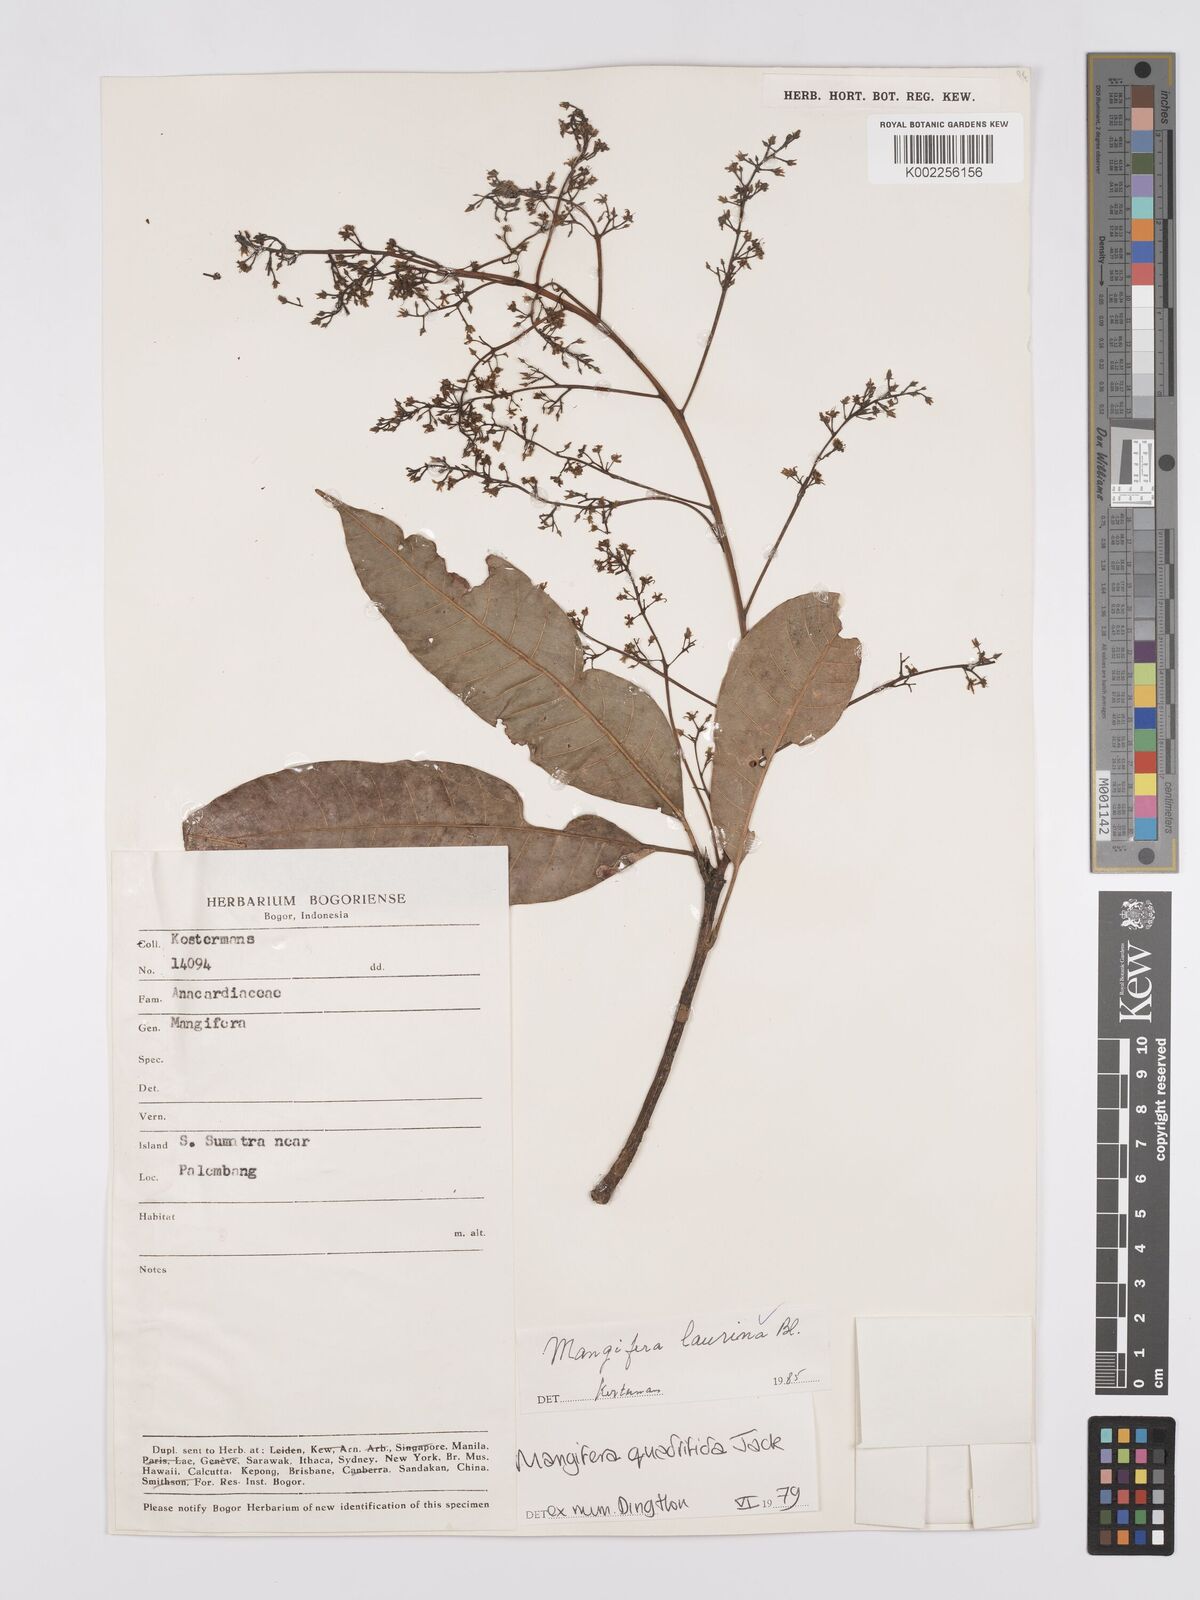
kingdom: Plantae
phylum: Tracheophyta
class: Magnoliopsida
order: Sapindales
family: Anacardiaceae
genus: Mangifera
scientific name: Mangifera laurina
